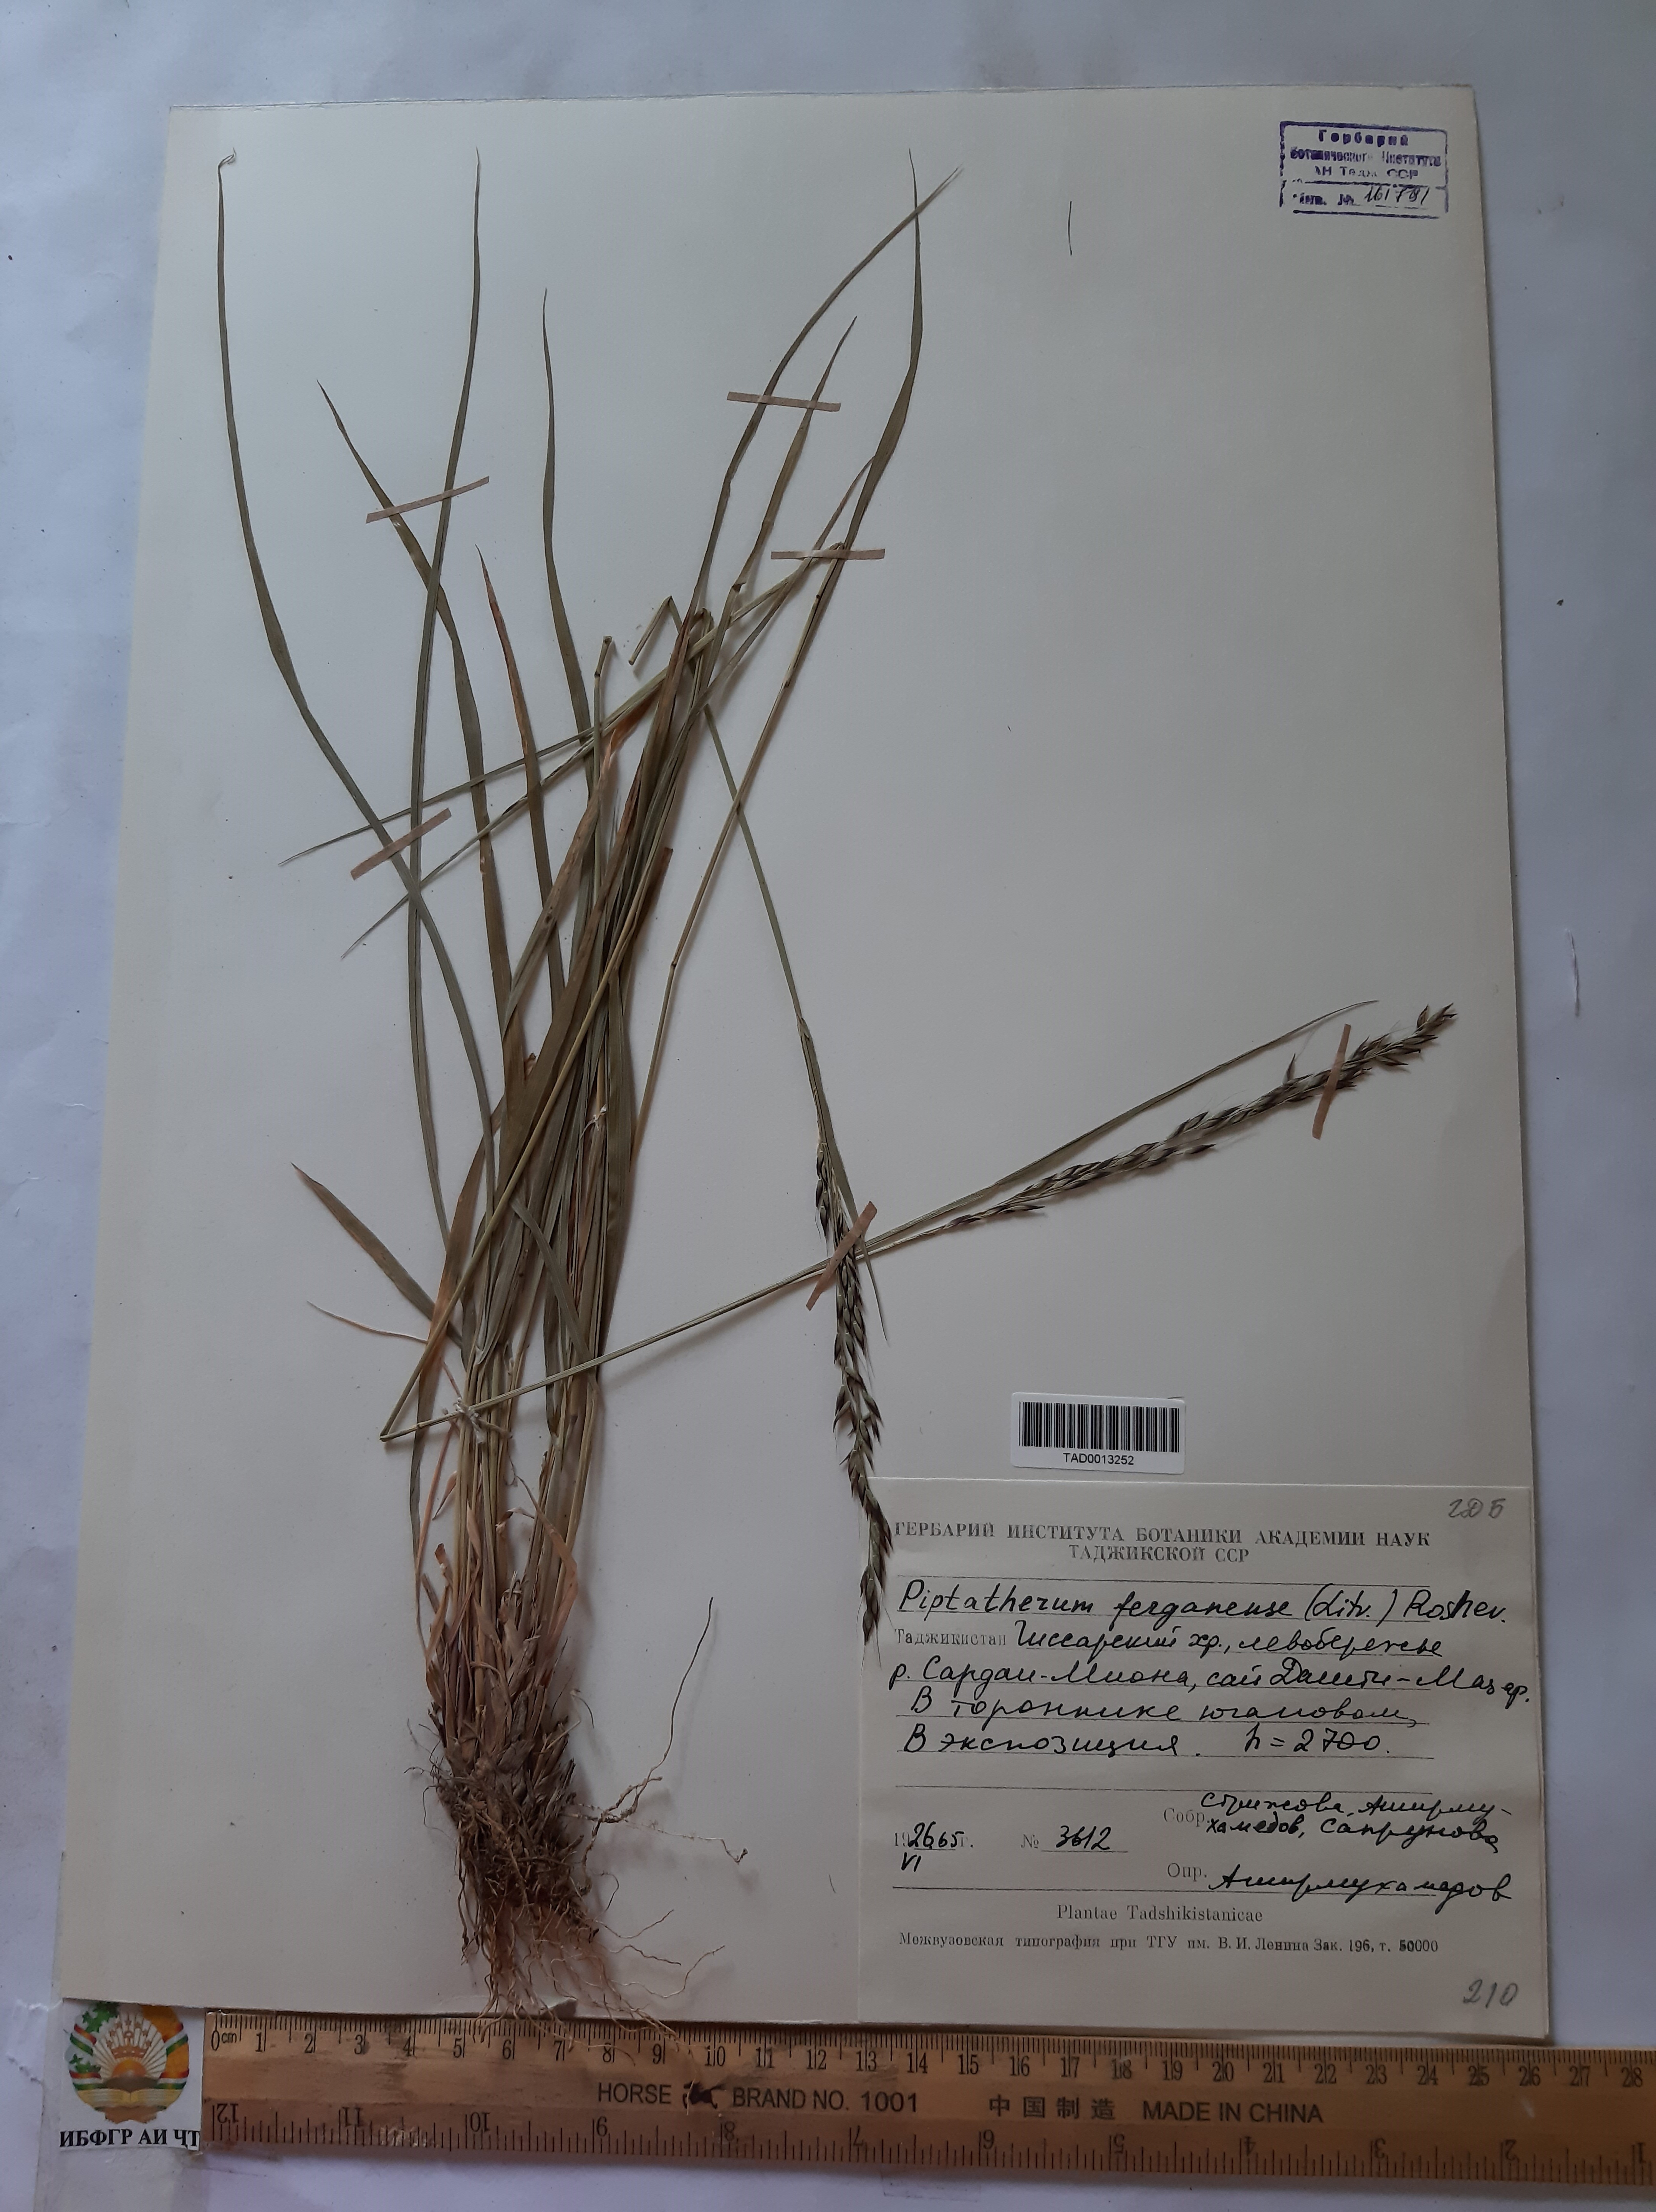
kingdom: Plantae
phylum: Tracheophyta
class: Liliopsida
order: Poales
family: Poaceae
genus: Piptatherum
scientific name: Piptatherum ferganense
